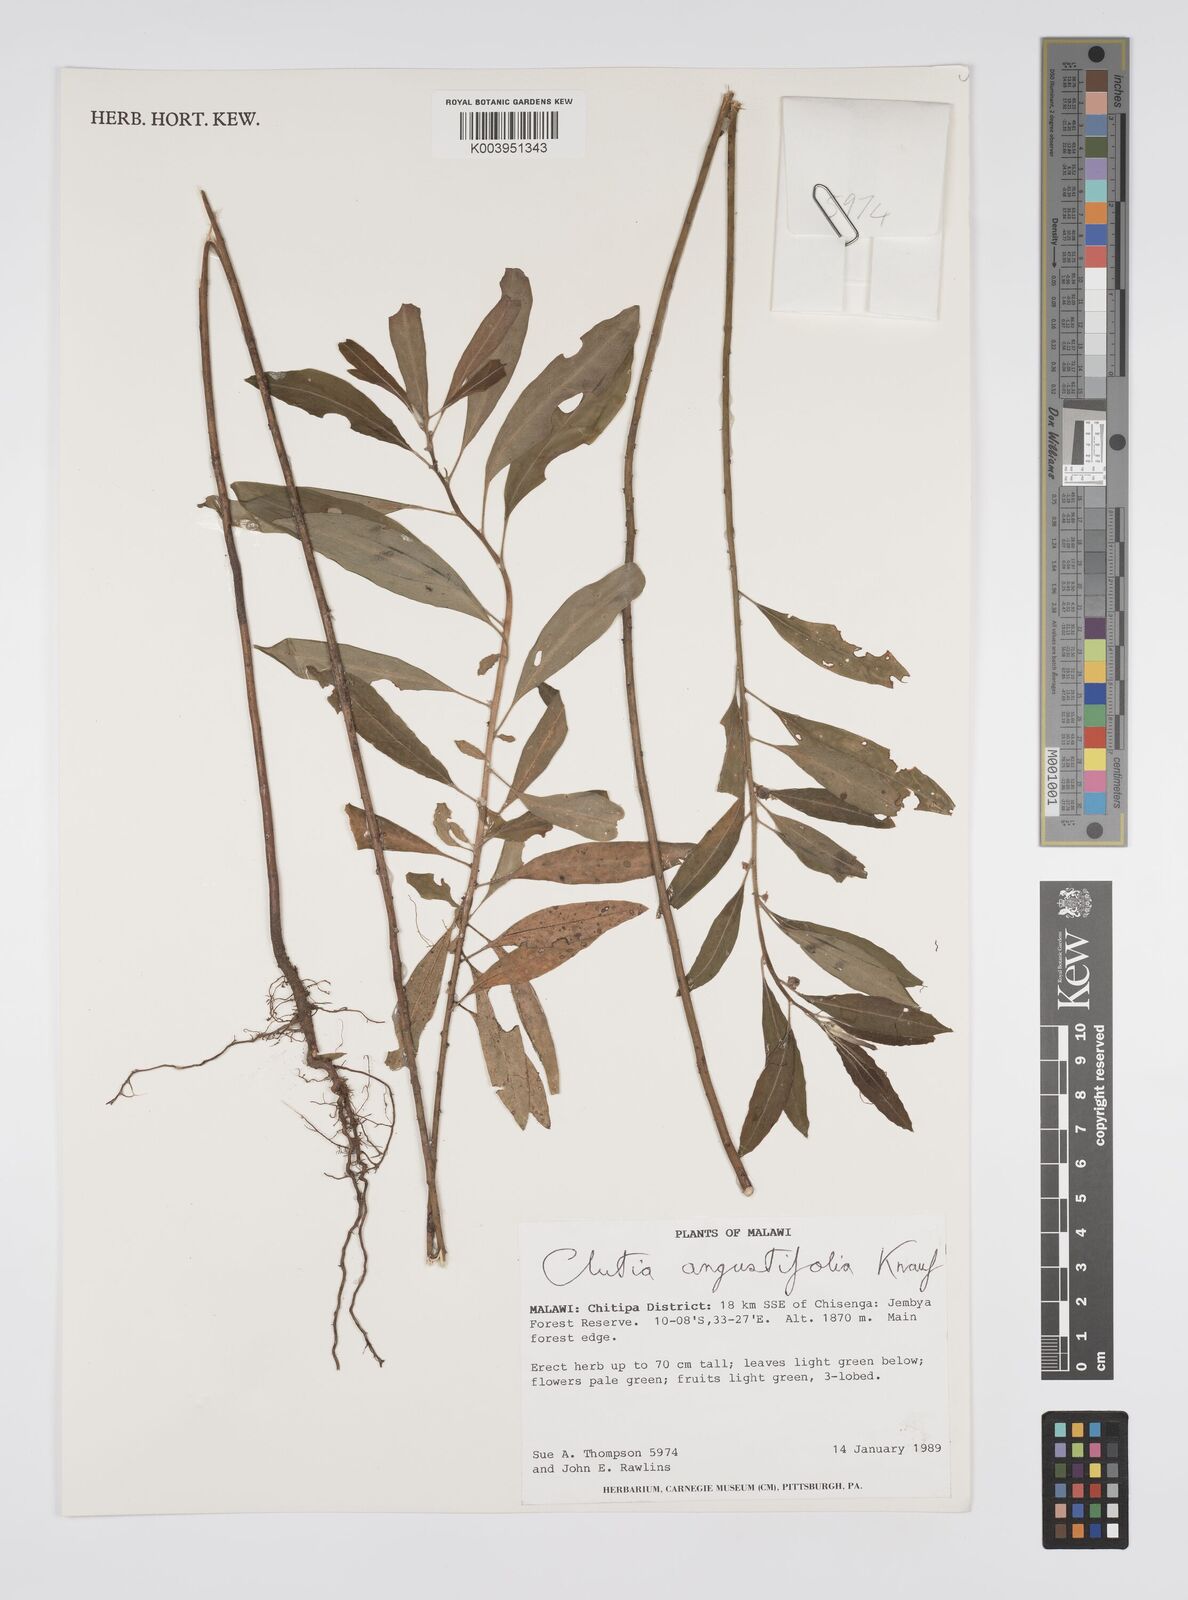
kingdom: Plantae
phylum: Tracheophyta
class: Magnoliopsida
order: Malpighiales
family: Peraceae
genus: Clutia
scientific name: Clutia angustifolia
